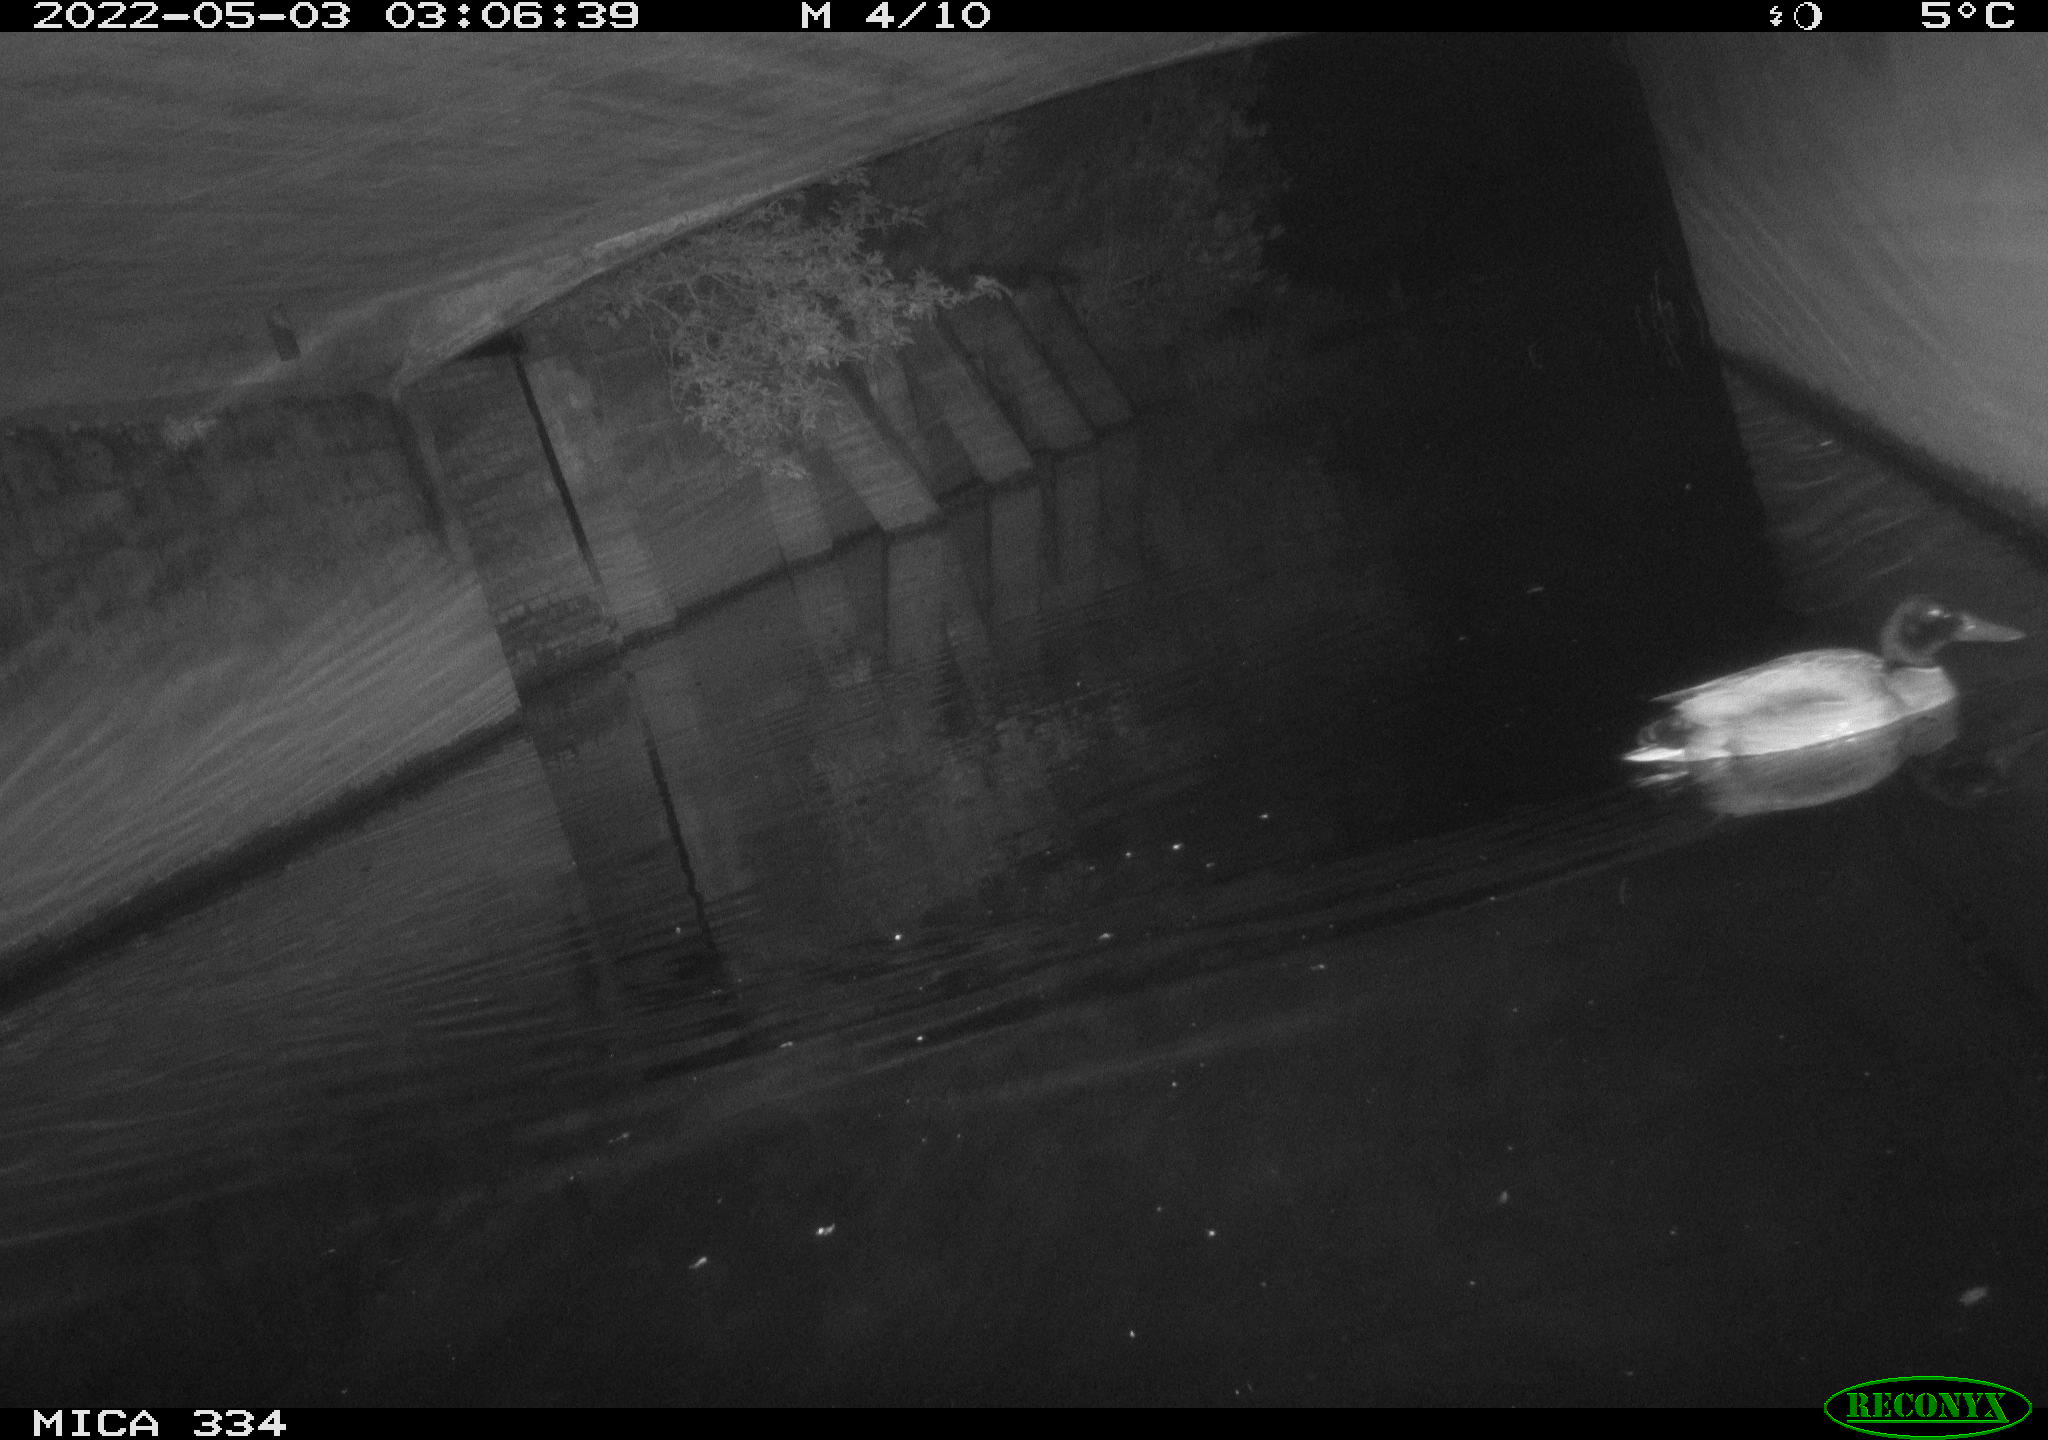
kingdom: Animalia
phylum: Chordata
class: Aves
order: Anseriformes
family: Anatidae
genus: Anas
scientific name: Anas platyrhynchos
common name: Mallard
